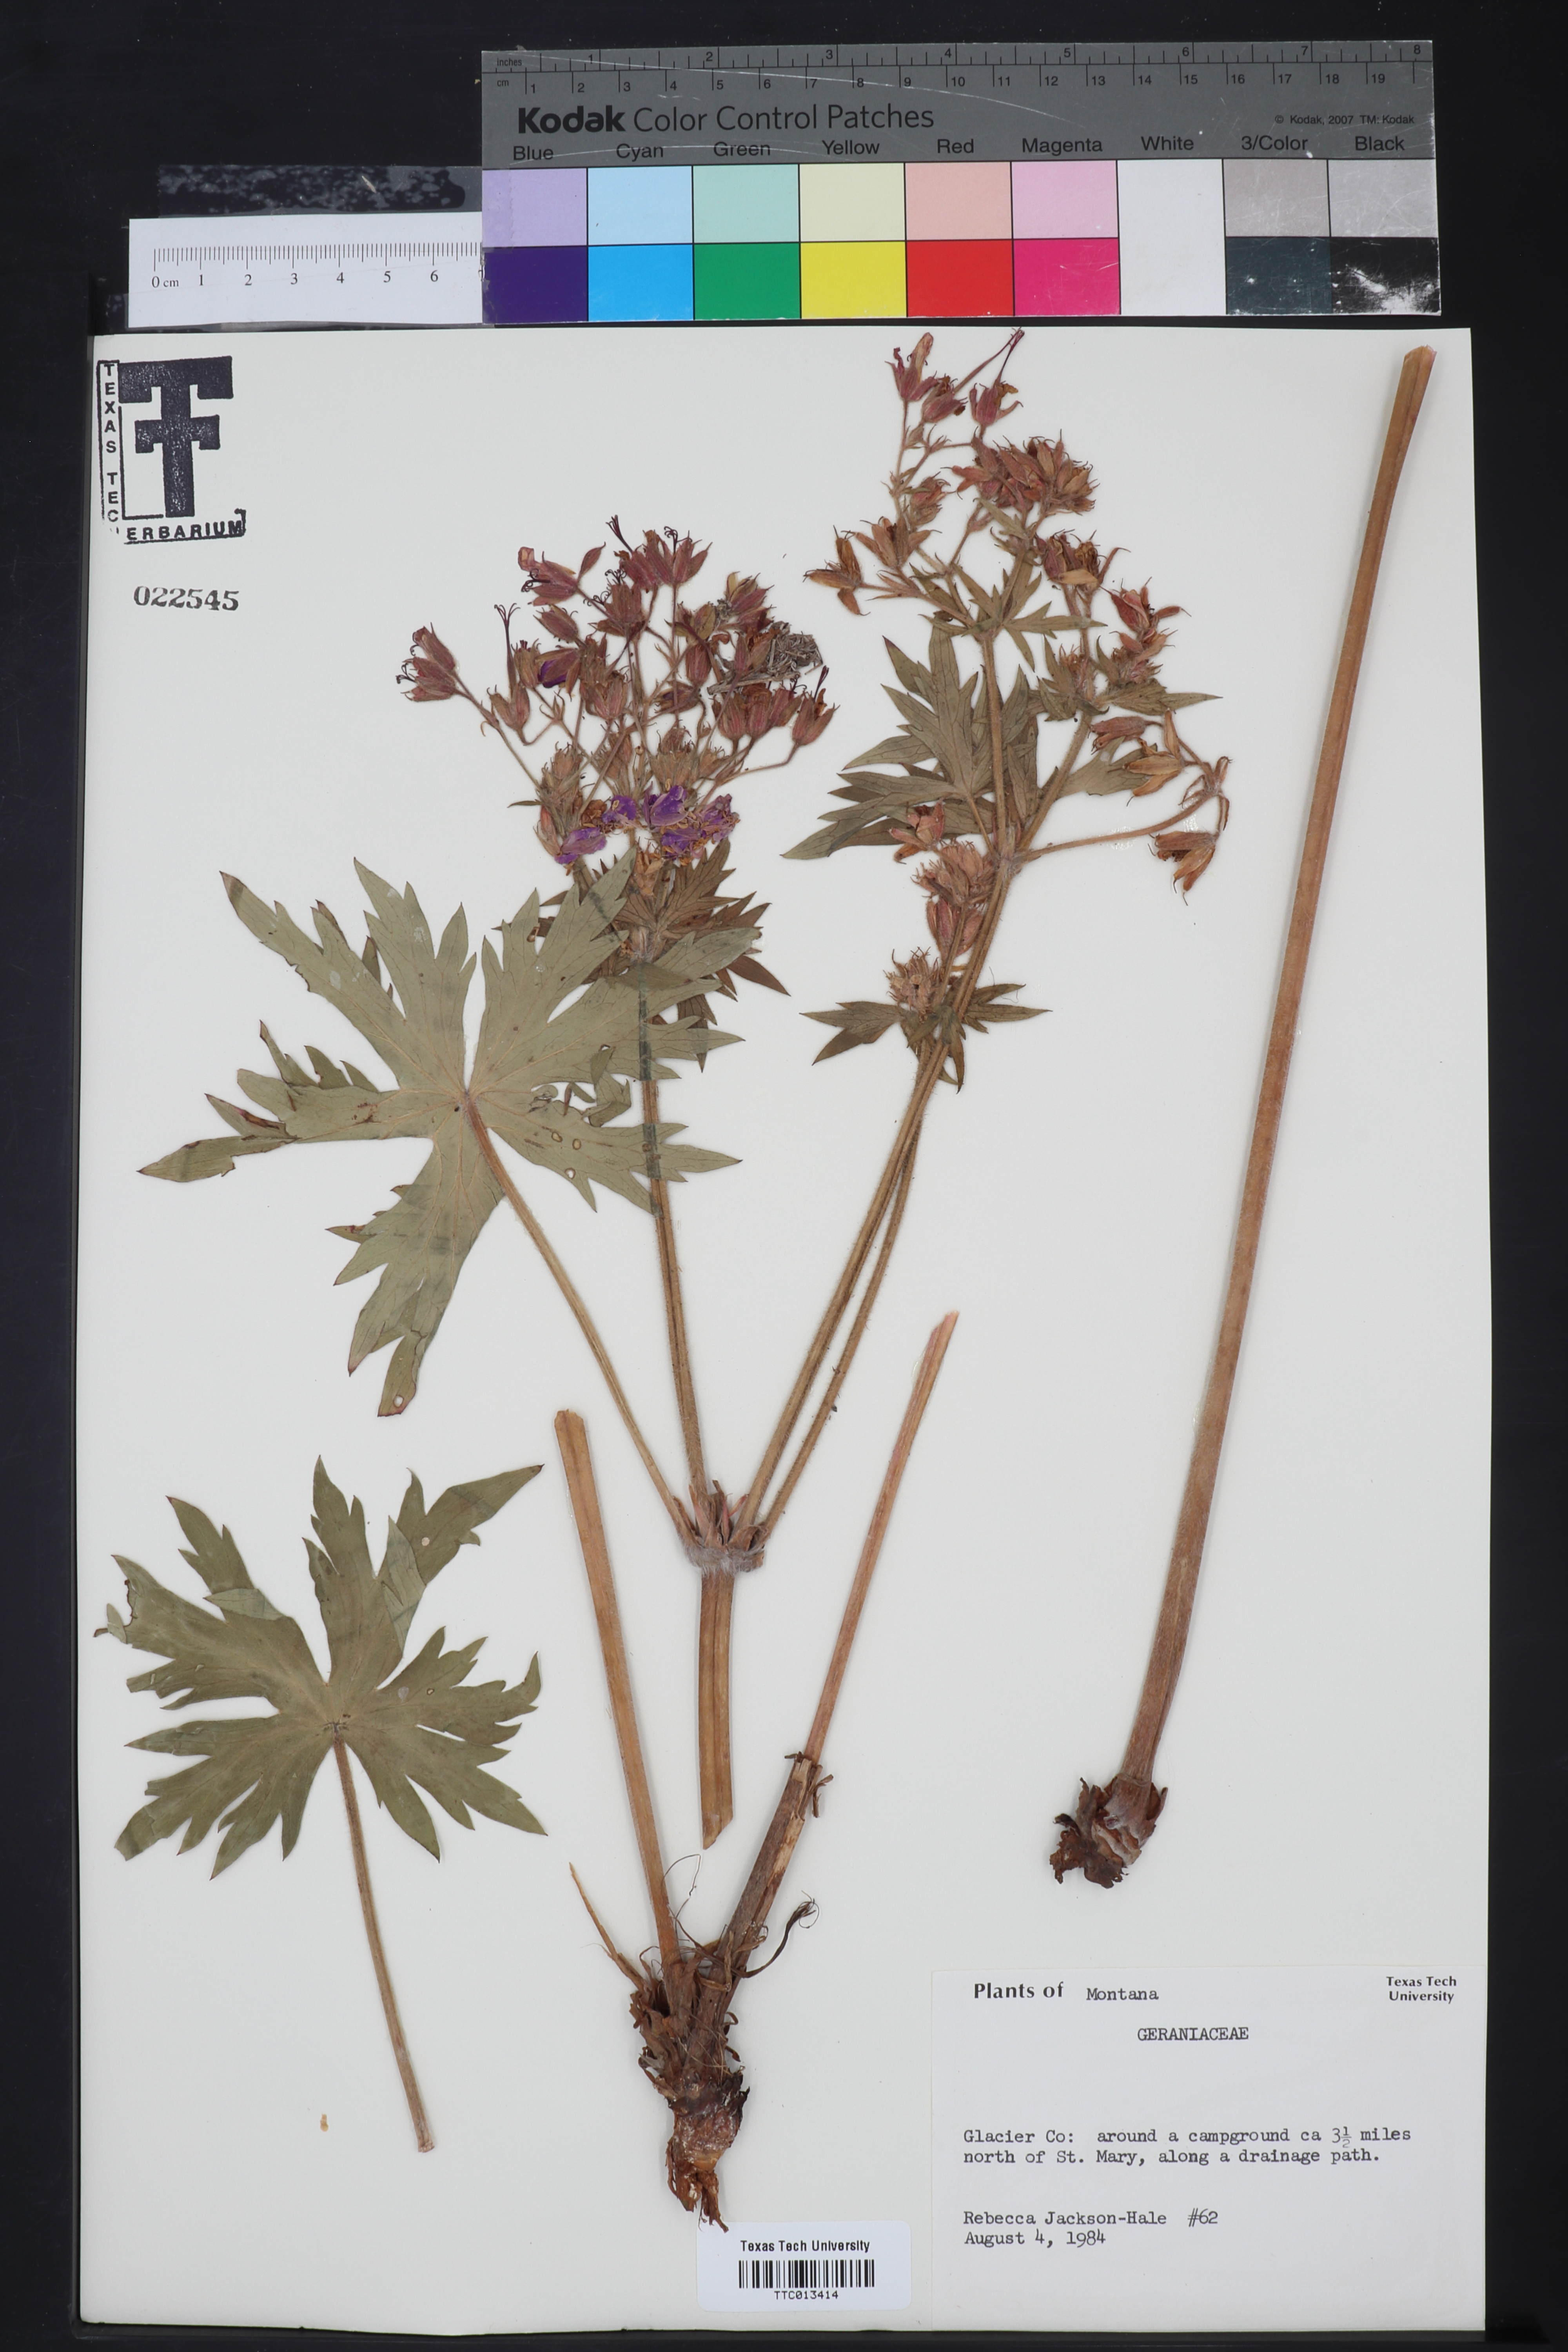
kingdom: Plantae
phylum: Tracheophyta
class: Magnoliopsida
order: Geraniales
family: Geraniaceae
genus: Geranium
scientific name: Geranium
